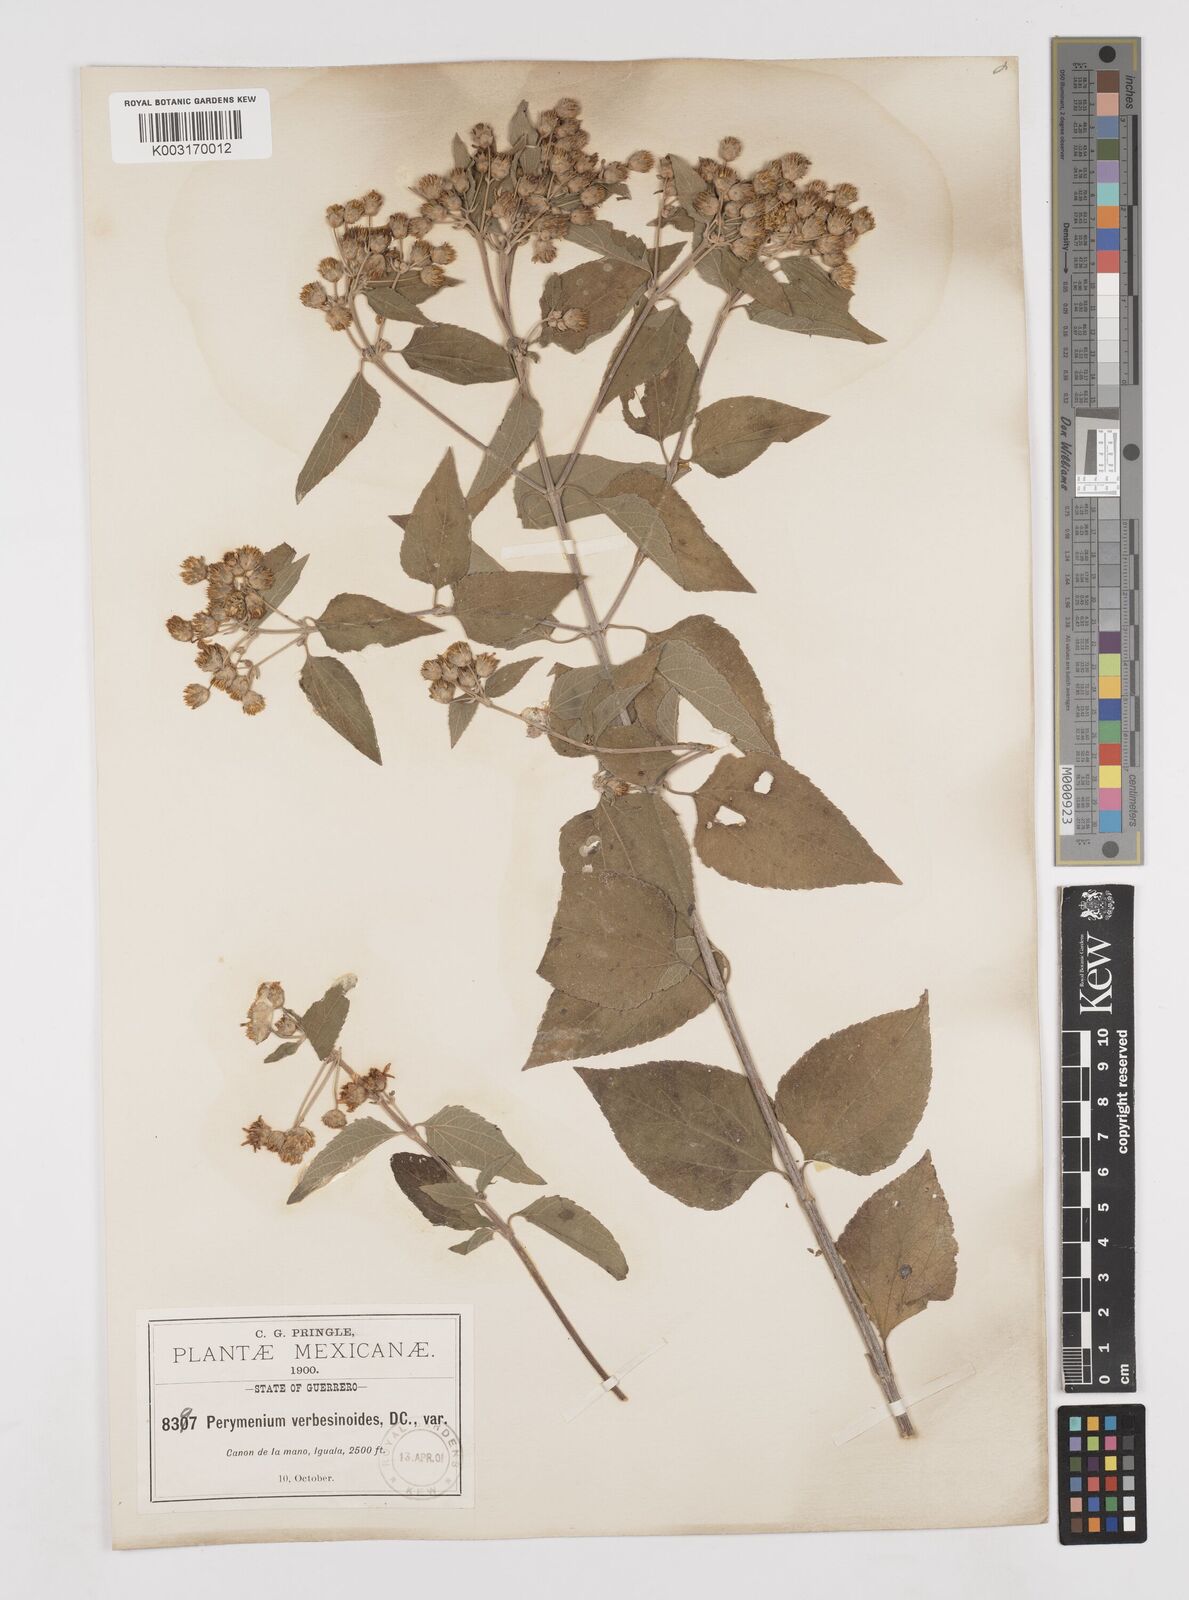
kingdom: Plantae
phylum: Tracheophyta
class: Magnoliopsida
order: Asterales
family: Asteraceae
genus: Perymenium
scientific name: Perymenium mendezii
